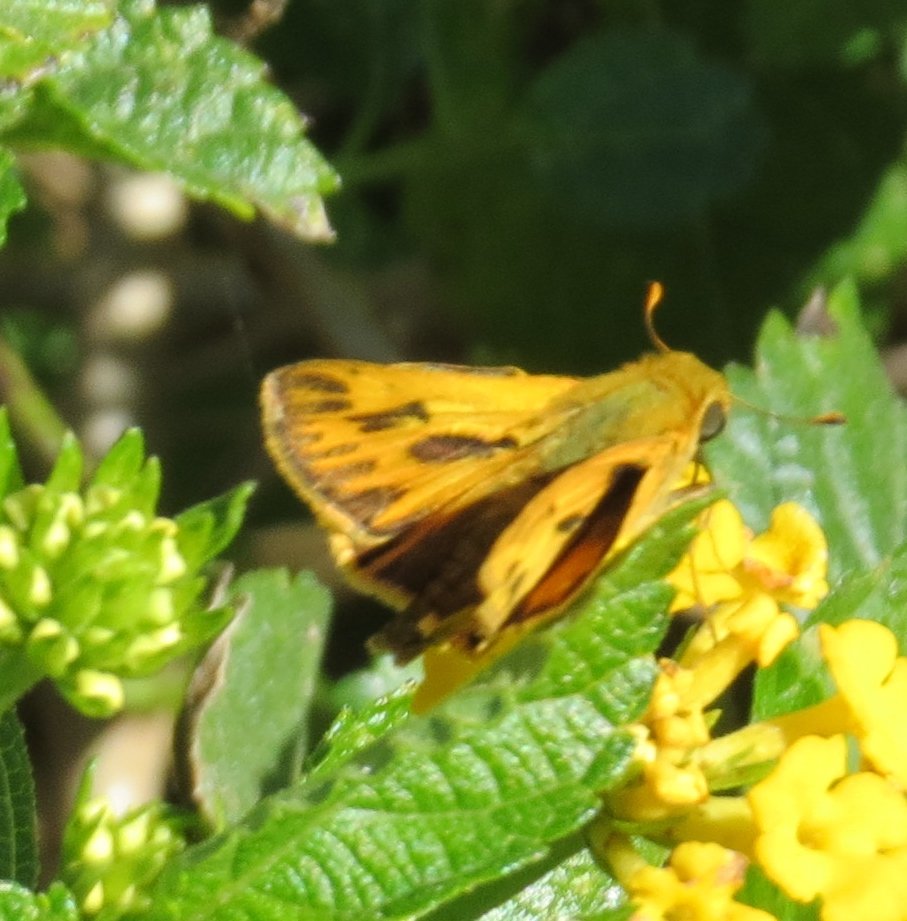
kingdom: Animalia
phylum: Arthropoda
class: Insecta
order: Lepidoptera
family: Hesperiidae
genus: Hylephila
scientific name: Hylephila phyleus
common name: Fiery Skipper
